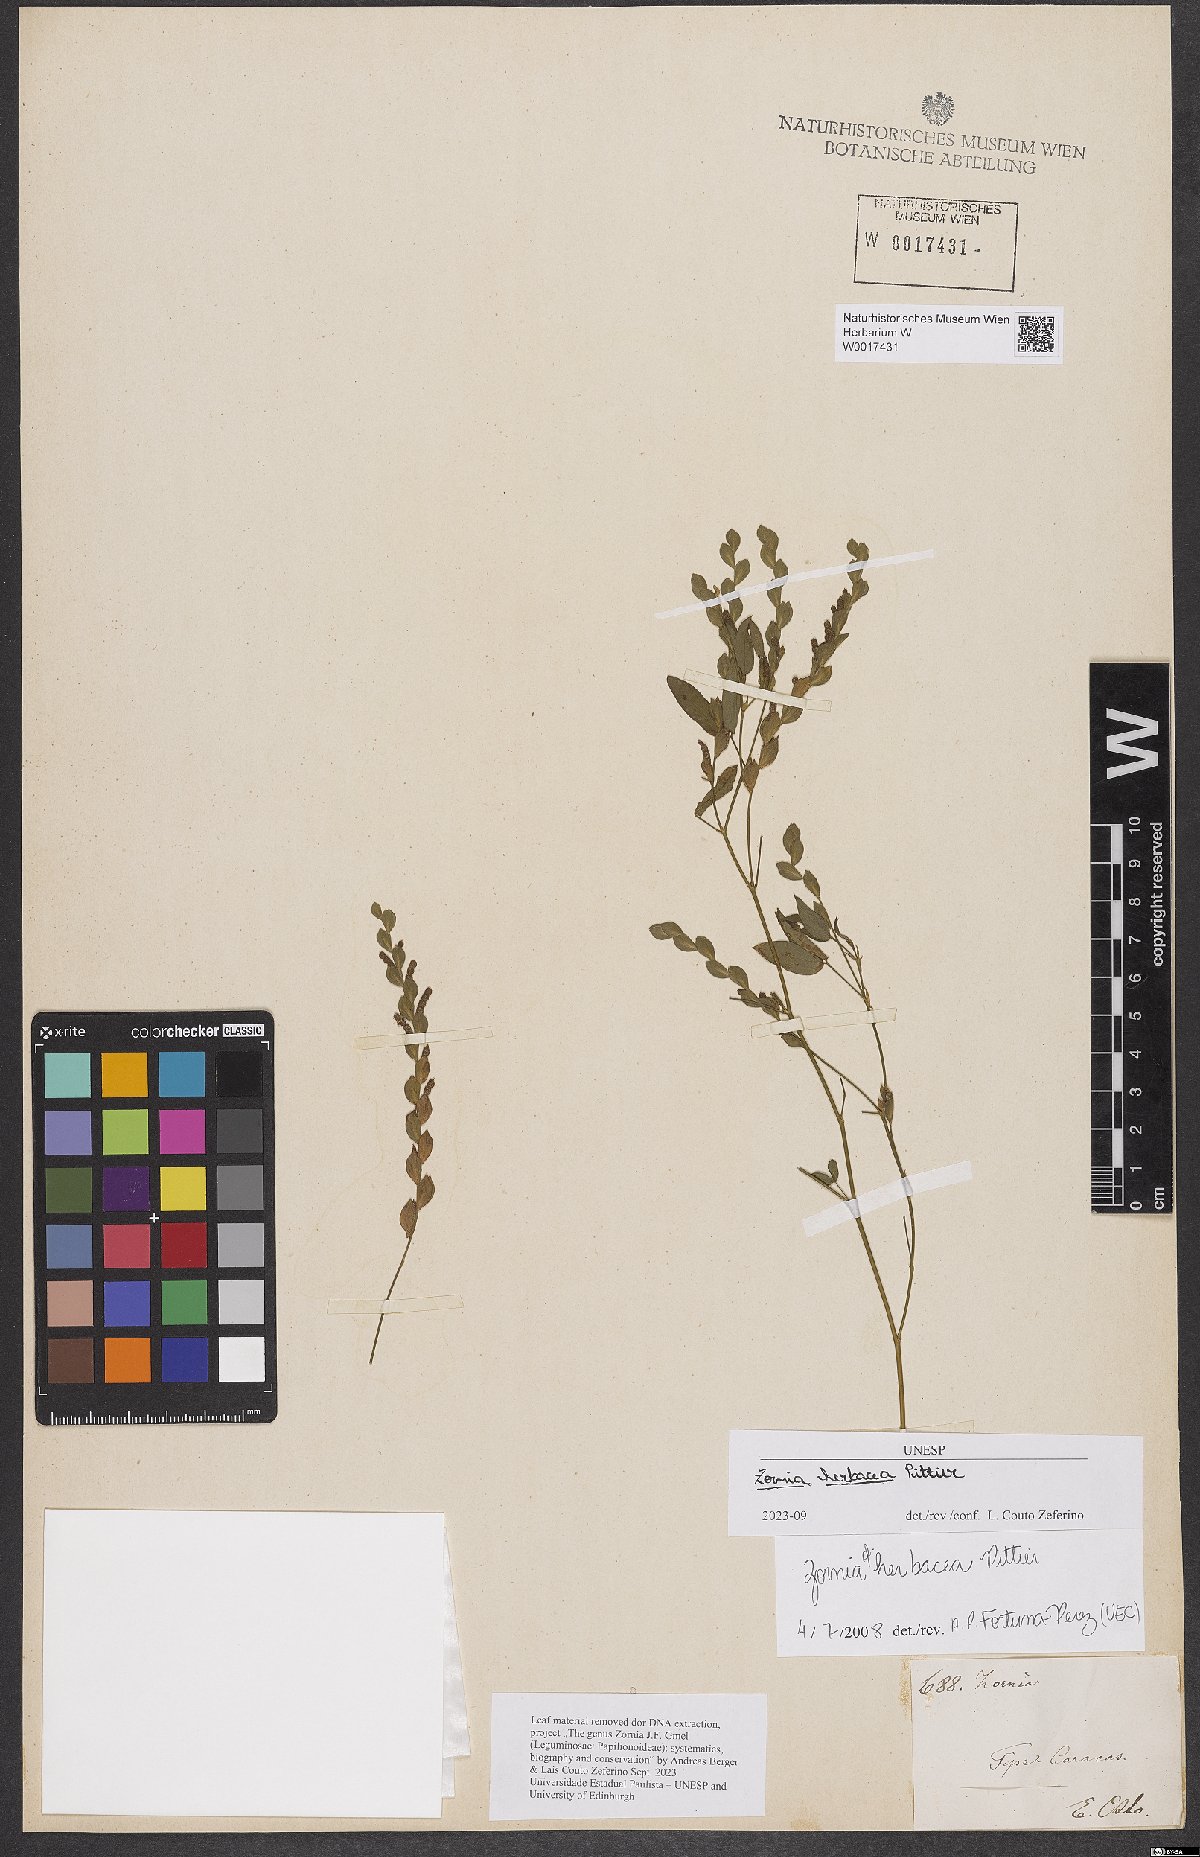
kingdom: Plantae
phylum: Tracheophyta
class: Magnoliopsida
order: Fabales
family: Fabaceae
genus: Zornia
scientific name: Zornia herbacea
